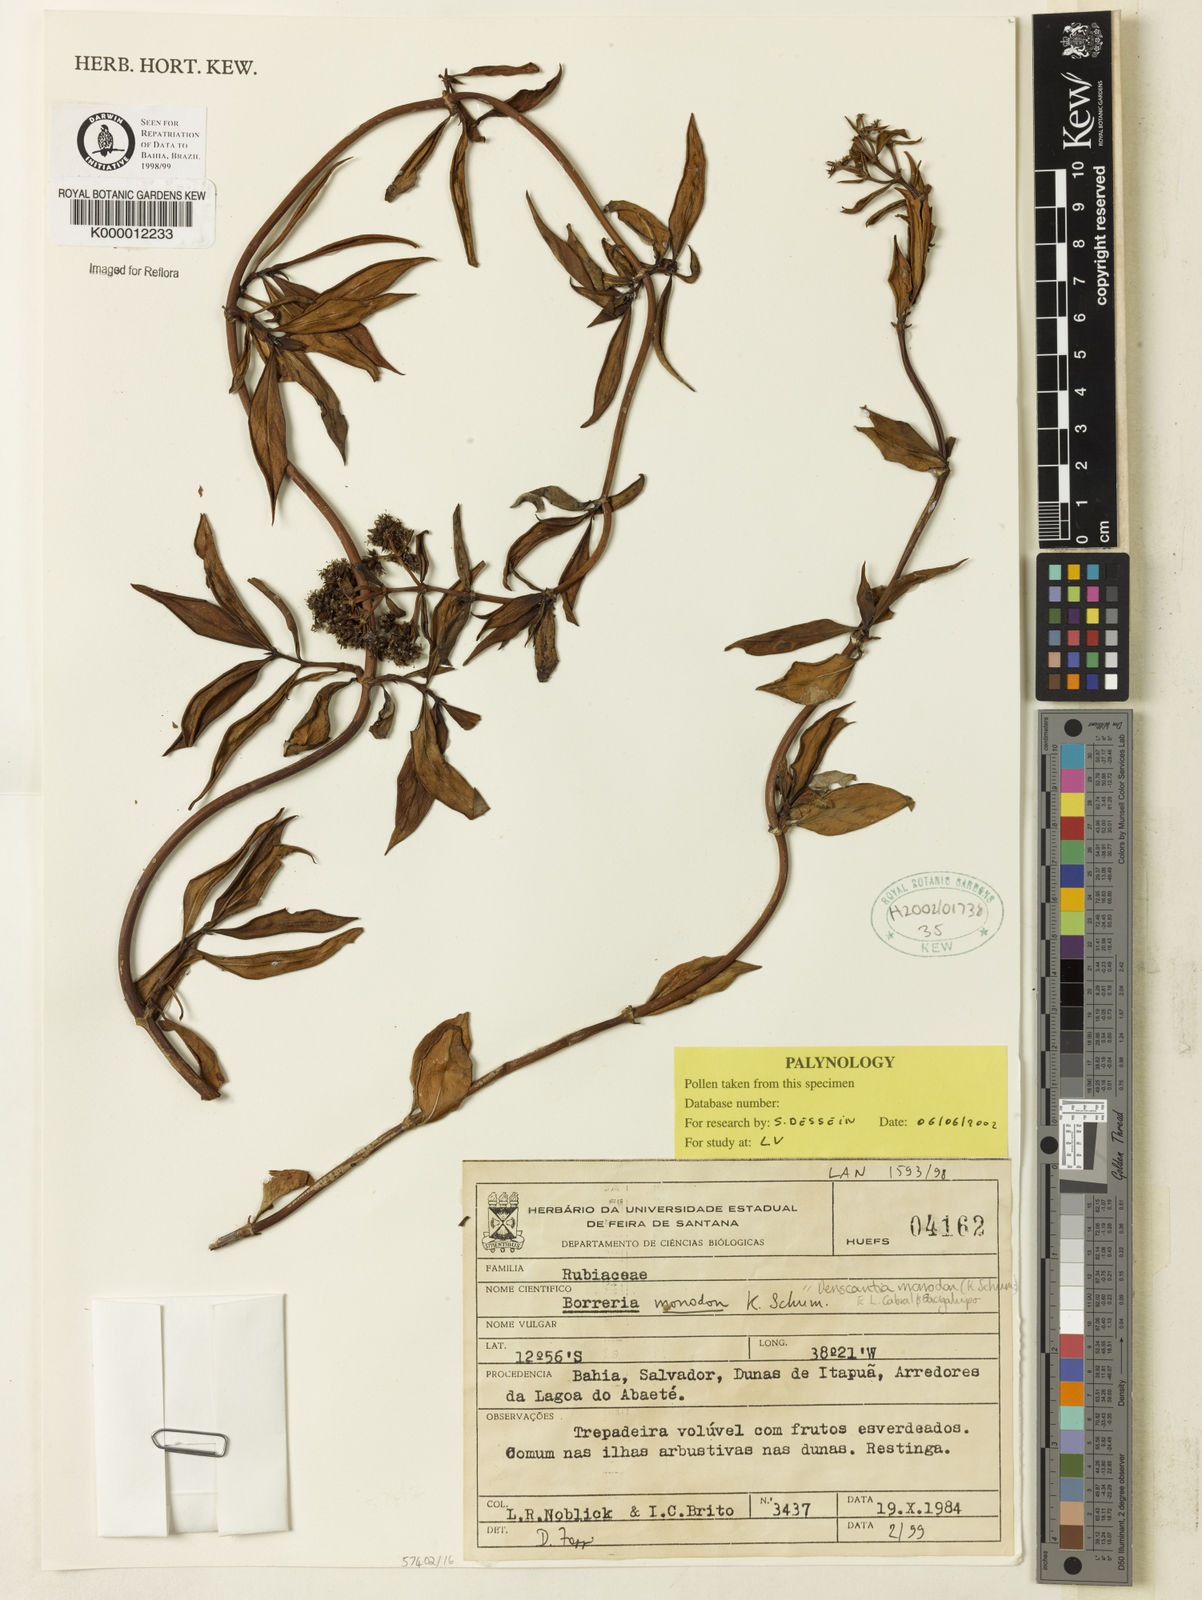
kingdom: Plantae
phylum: Tracheophyta
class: Magnoliopsida
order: Gentianales
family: Rubiaceae
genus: Denscantia
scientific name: Denscantia monodon
